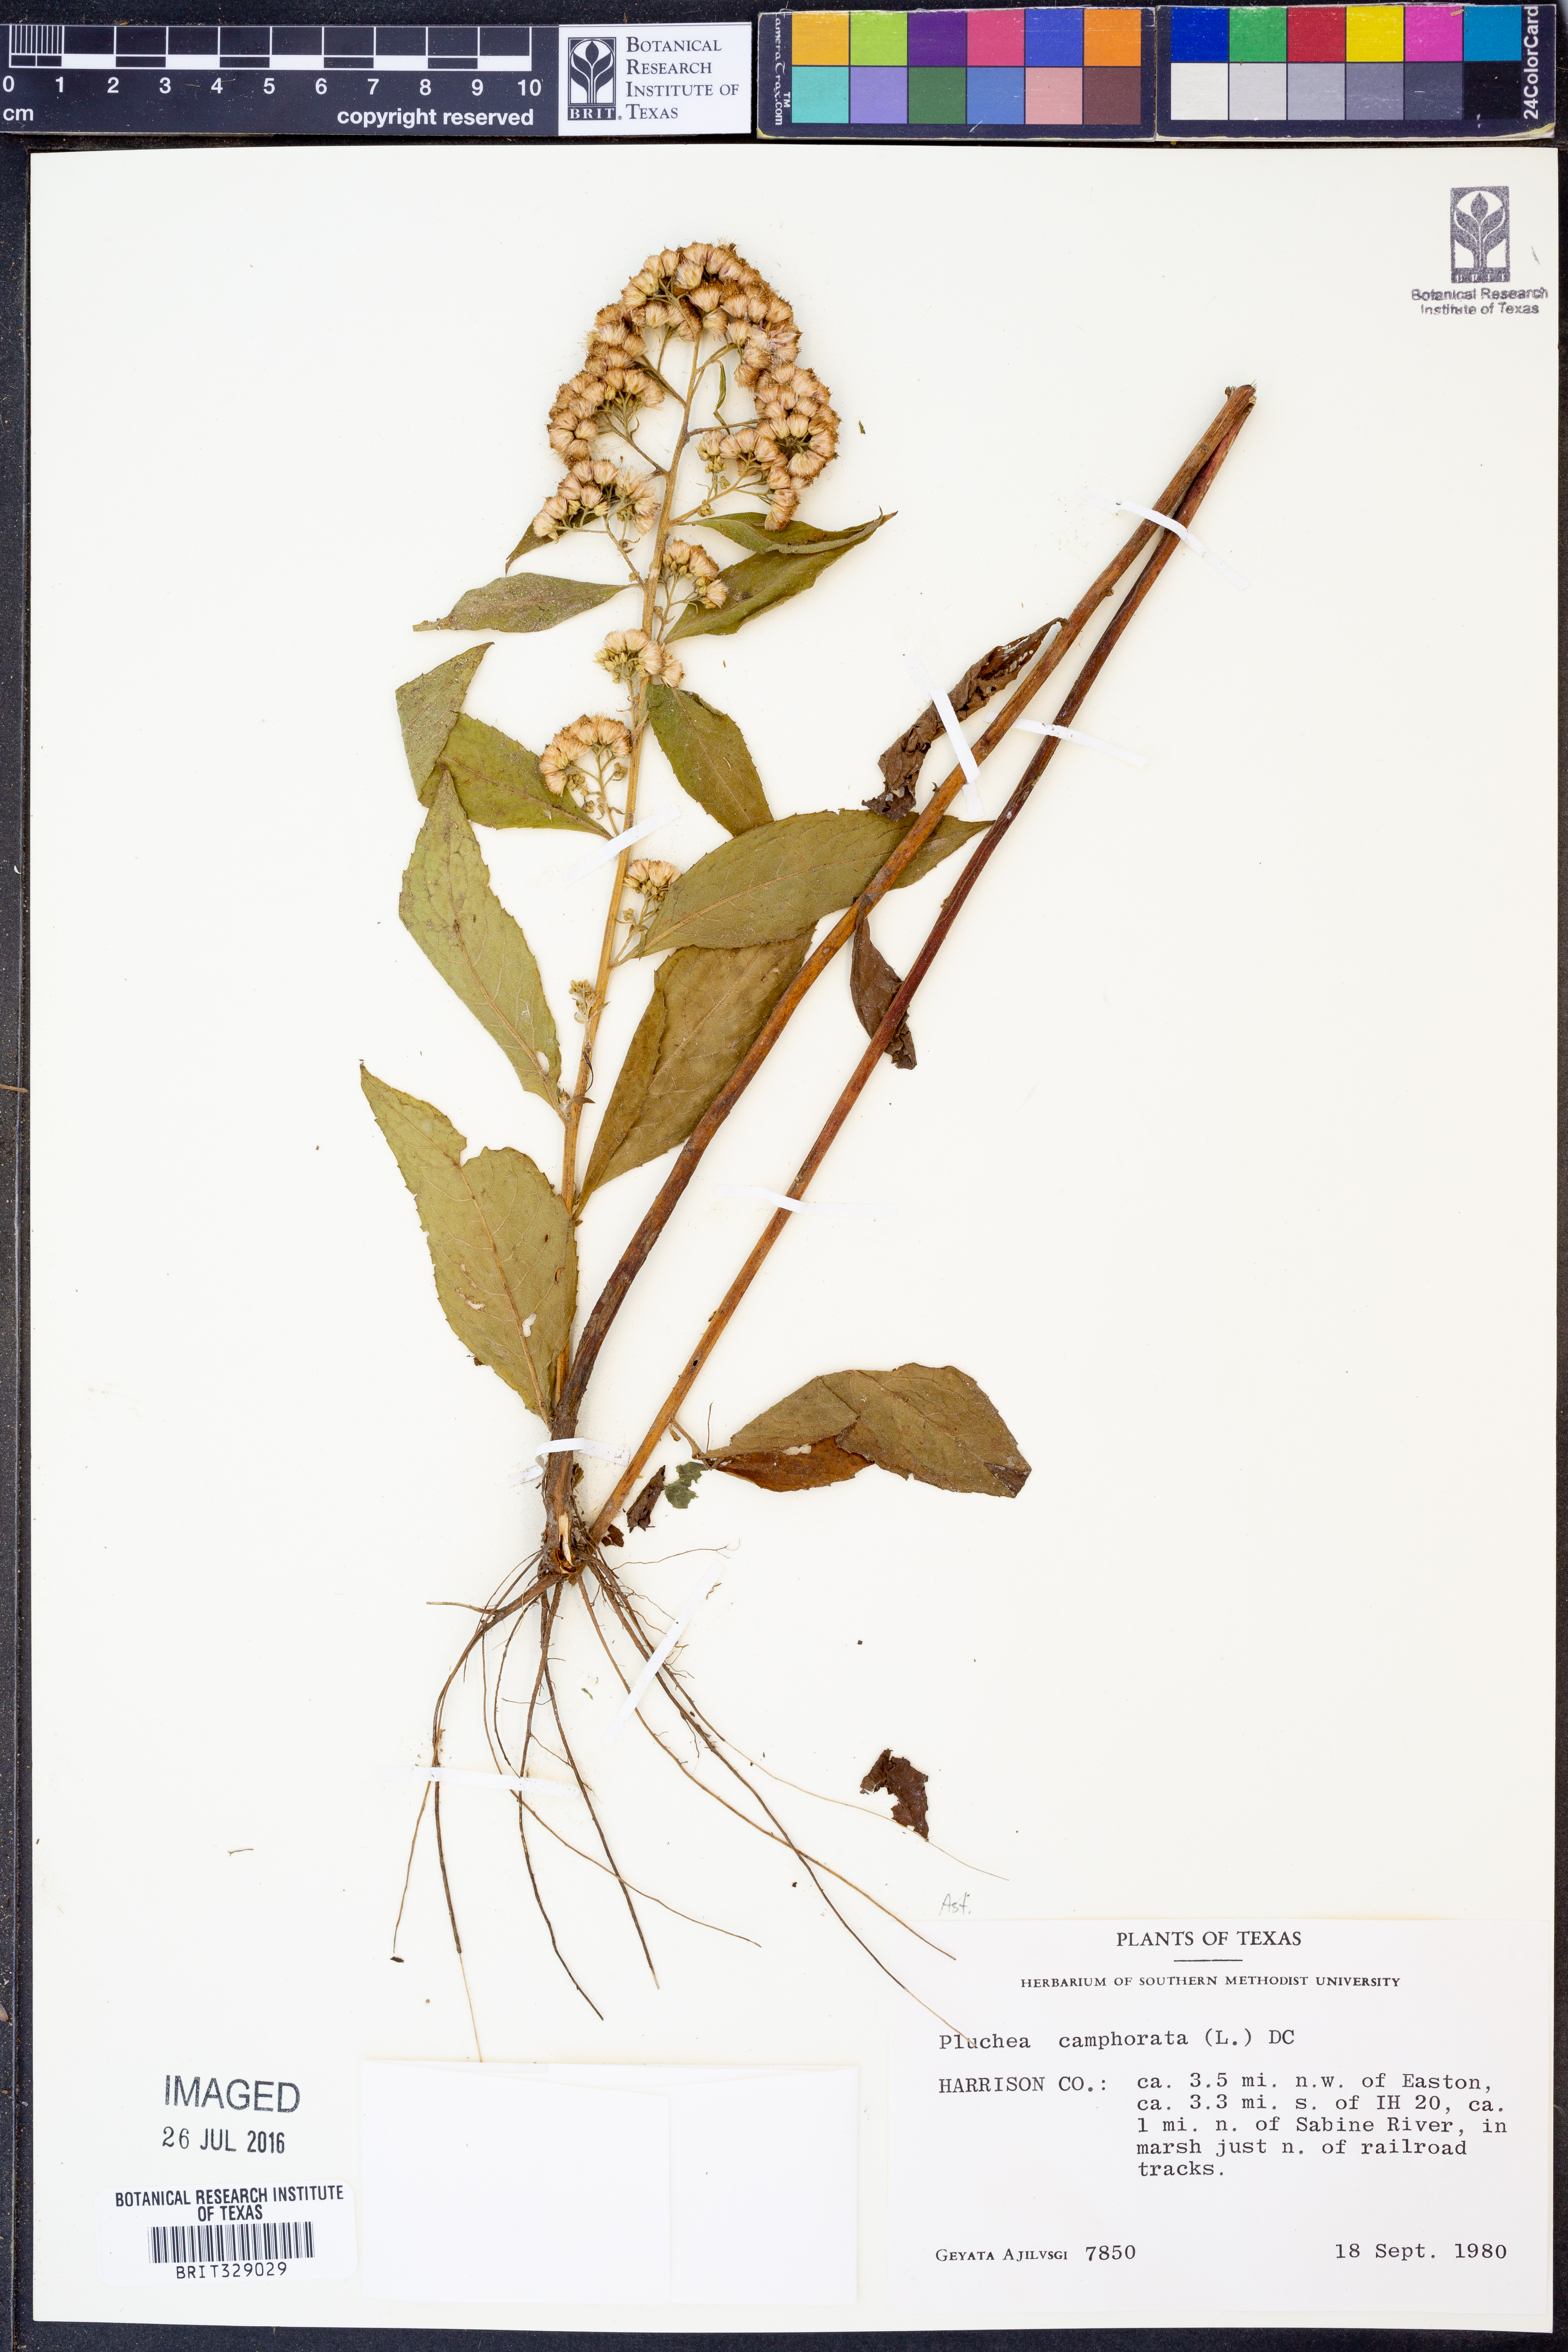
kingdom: Plantae
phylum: Tracheophyta
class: Magnoliopsida
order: Asterales
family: Asteraceae
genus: Pluchea
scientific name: Pluchea camphorata
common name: Camphor pluchea
